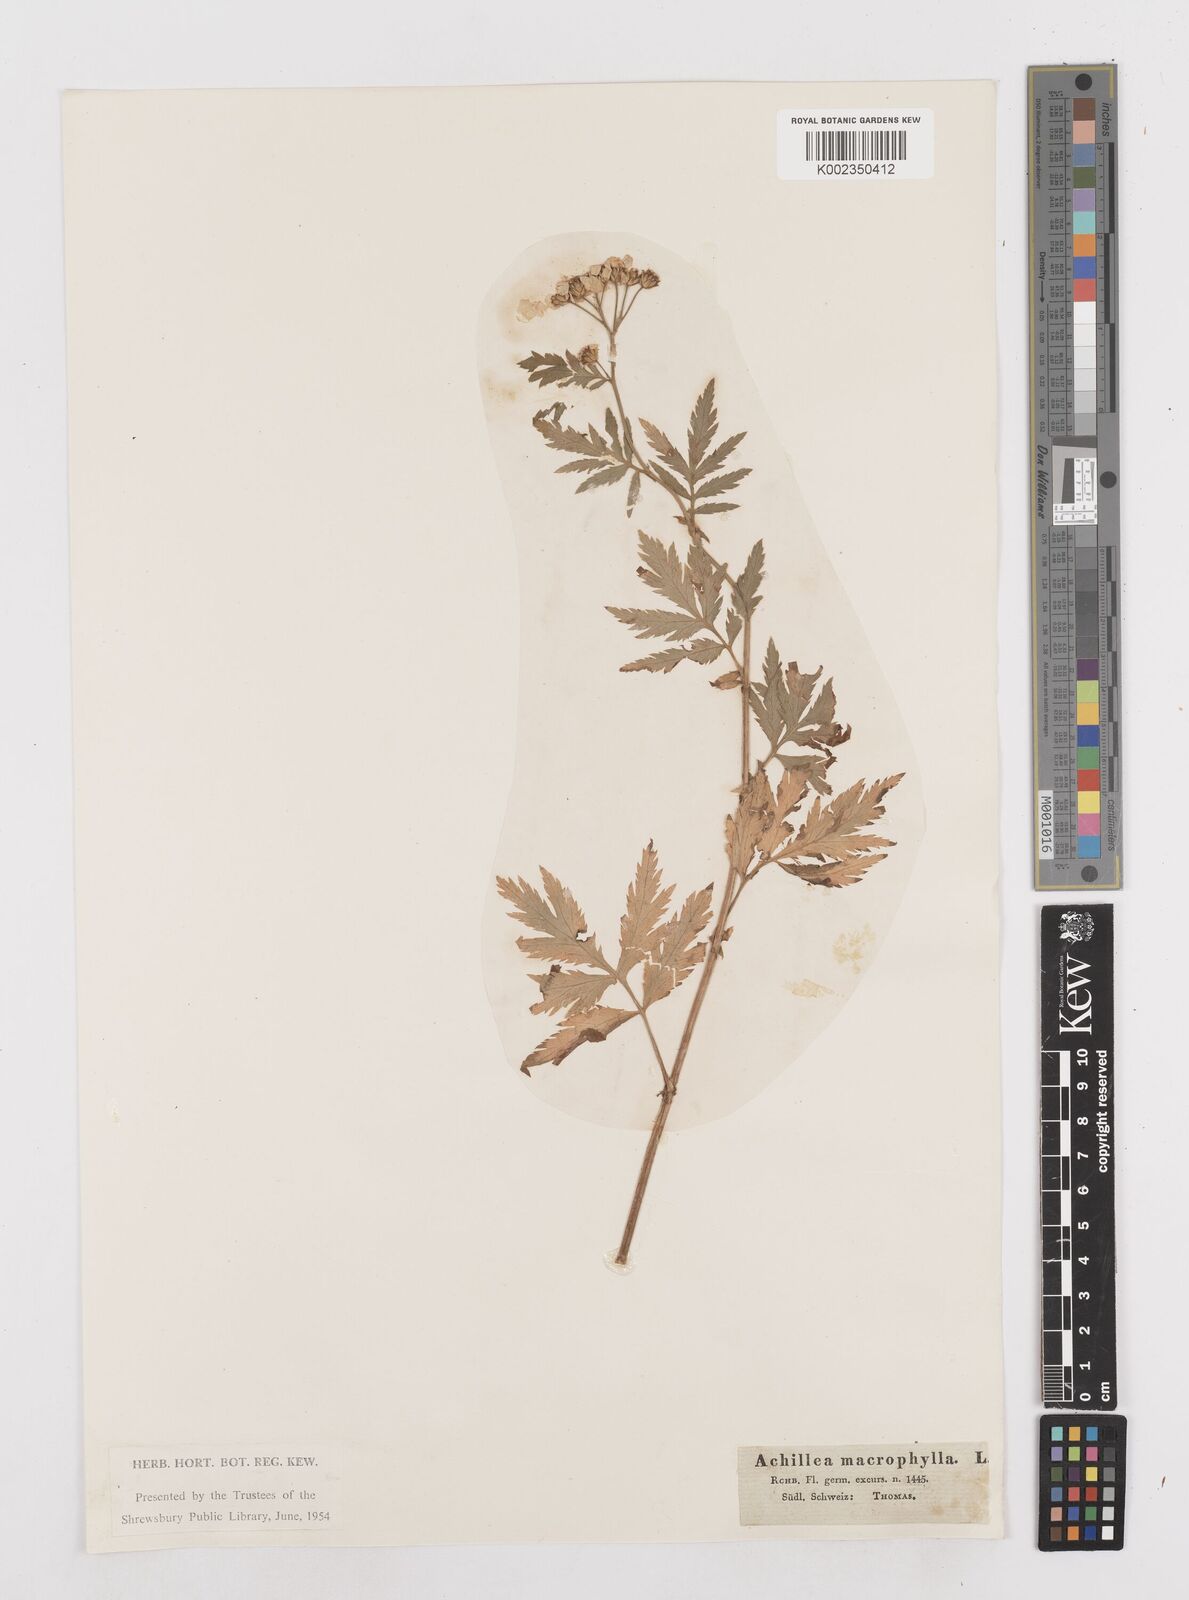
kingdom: Plantae
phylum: Tracheophyta
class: Magnoliopsida
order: Asterales
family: Asteraceae
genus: Achillea
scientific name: Achillea macrophylla
